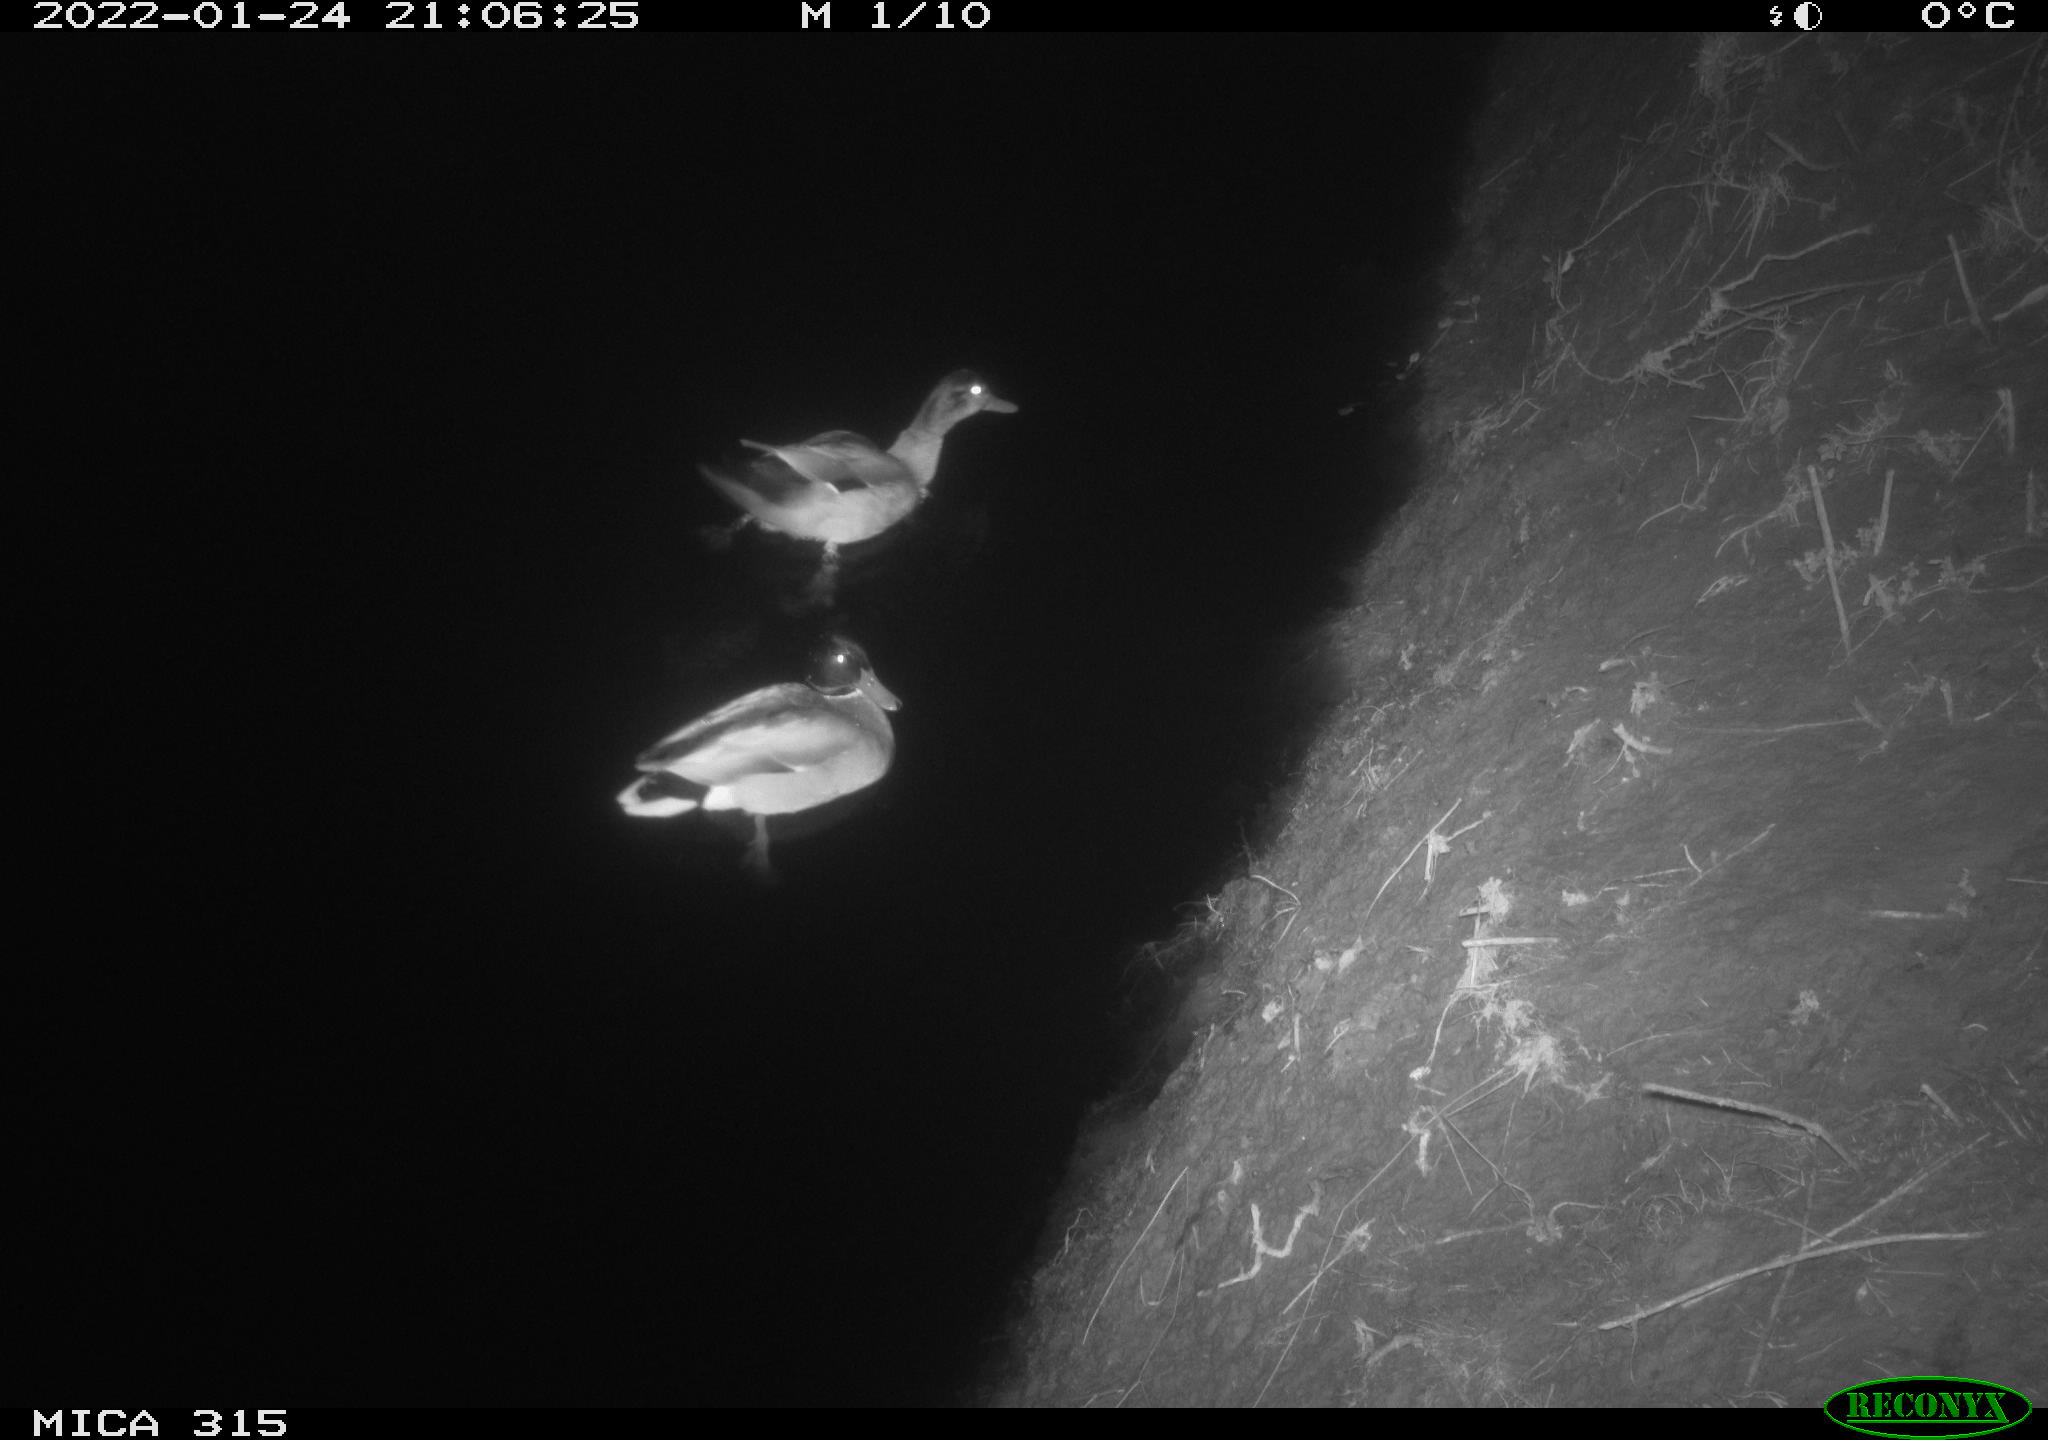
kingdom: Animalia
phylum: Chordata
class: Aves
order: Anseriformes
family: Anatidae
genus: Anas
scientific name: Anas
